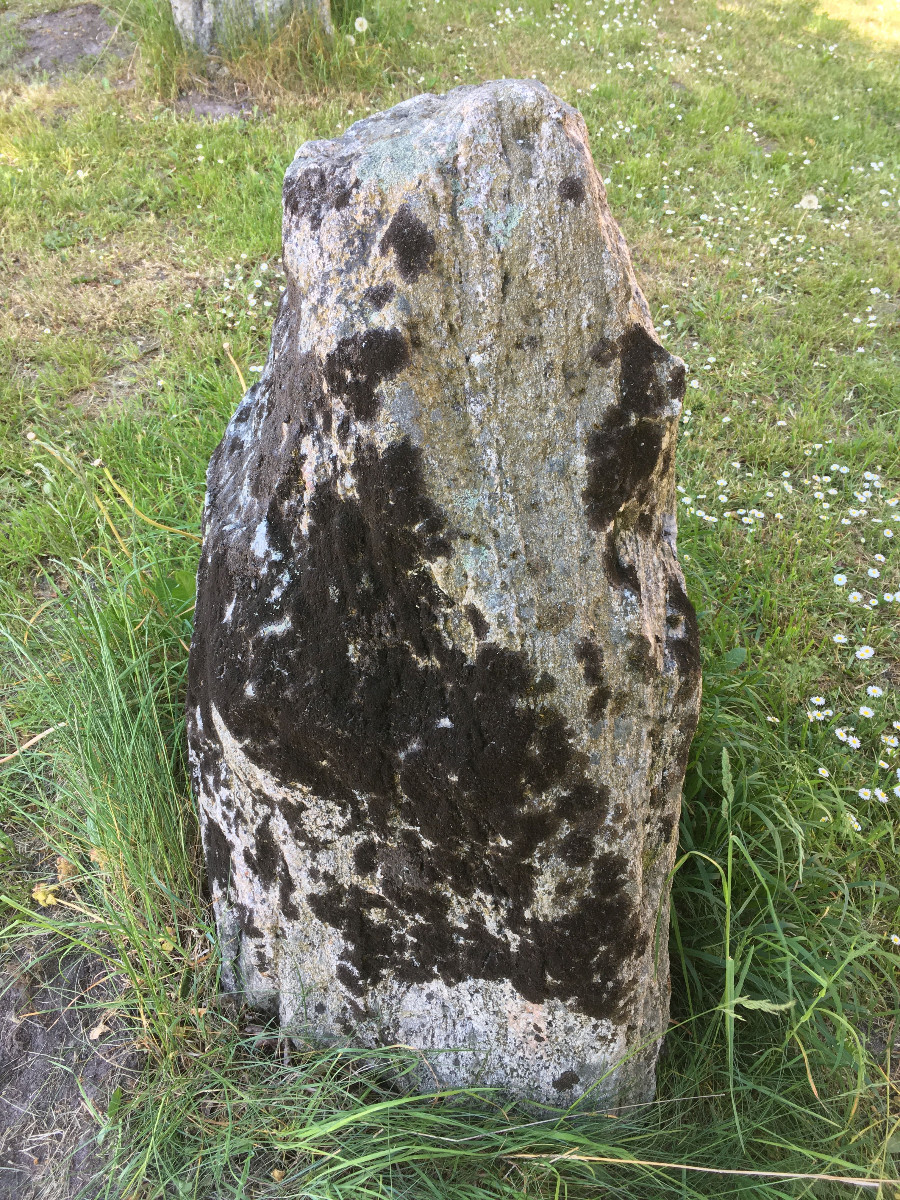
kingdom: Fungi
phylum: Ascomycota
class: Lecanoromycetes
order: Lecanorales
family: Parmeliaceae
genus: Melanelixia
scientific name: Melanelixia fuliginosa
